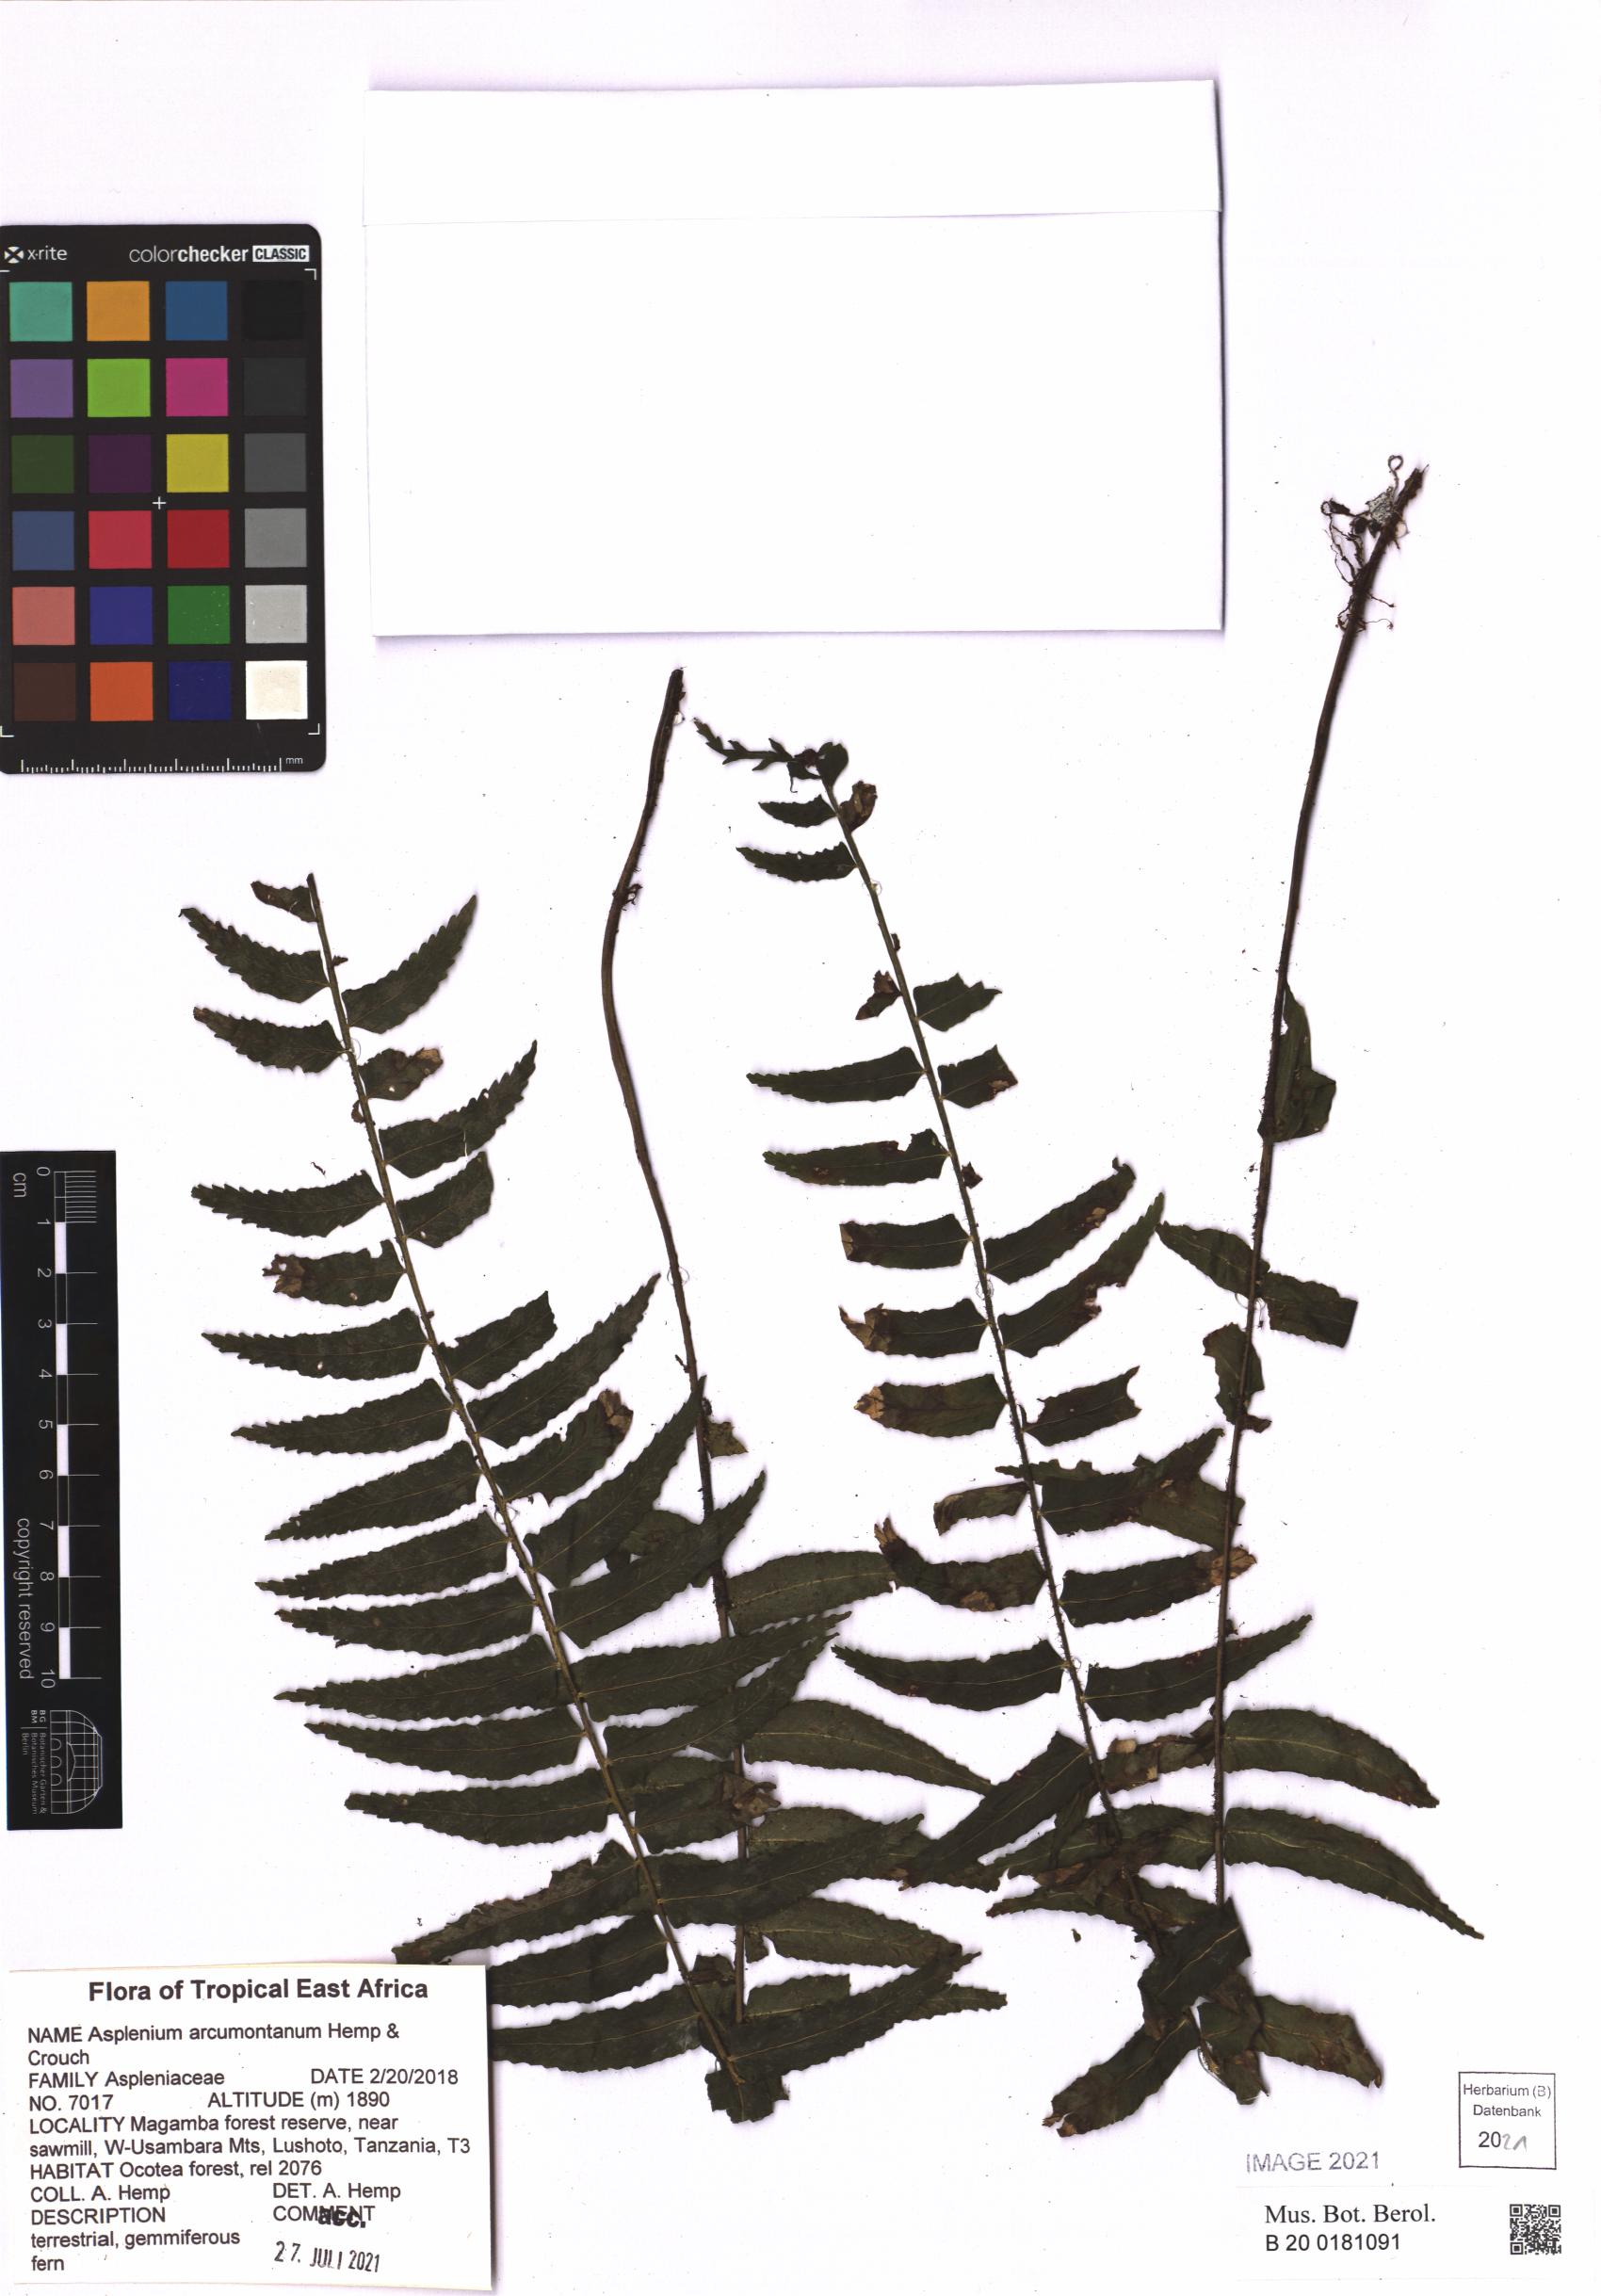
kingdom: Plantae
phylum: Tracheophyta
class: Polypodiopsida
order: Polypodiales
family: Aspleniaceae
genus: Asplenium
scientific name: Asplenium arcumontanum
